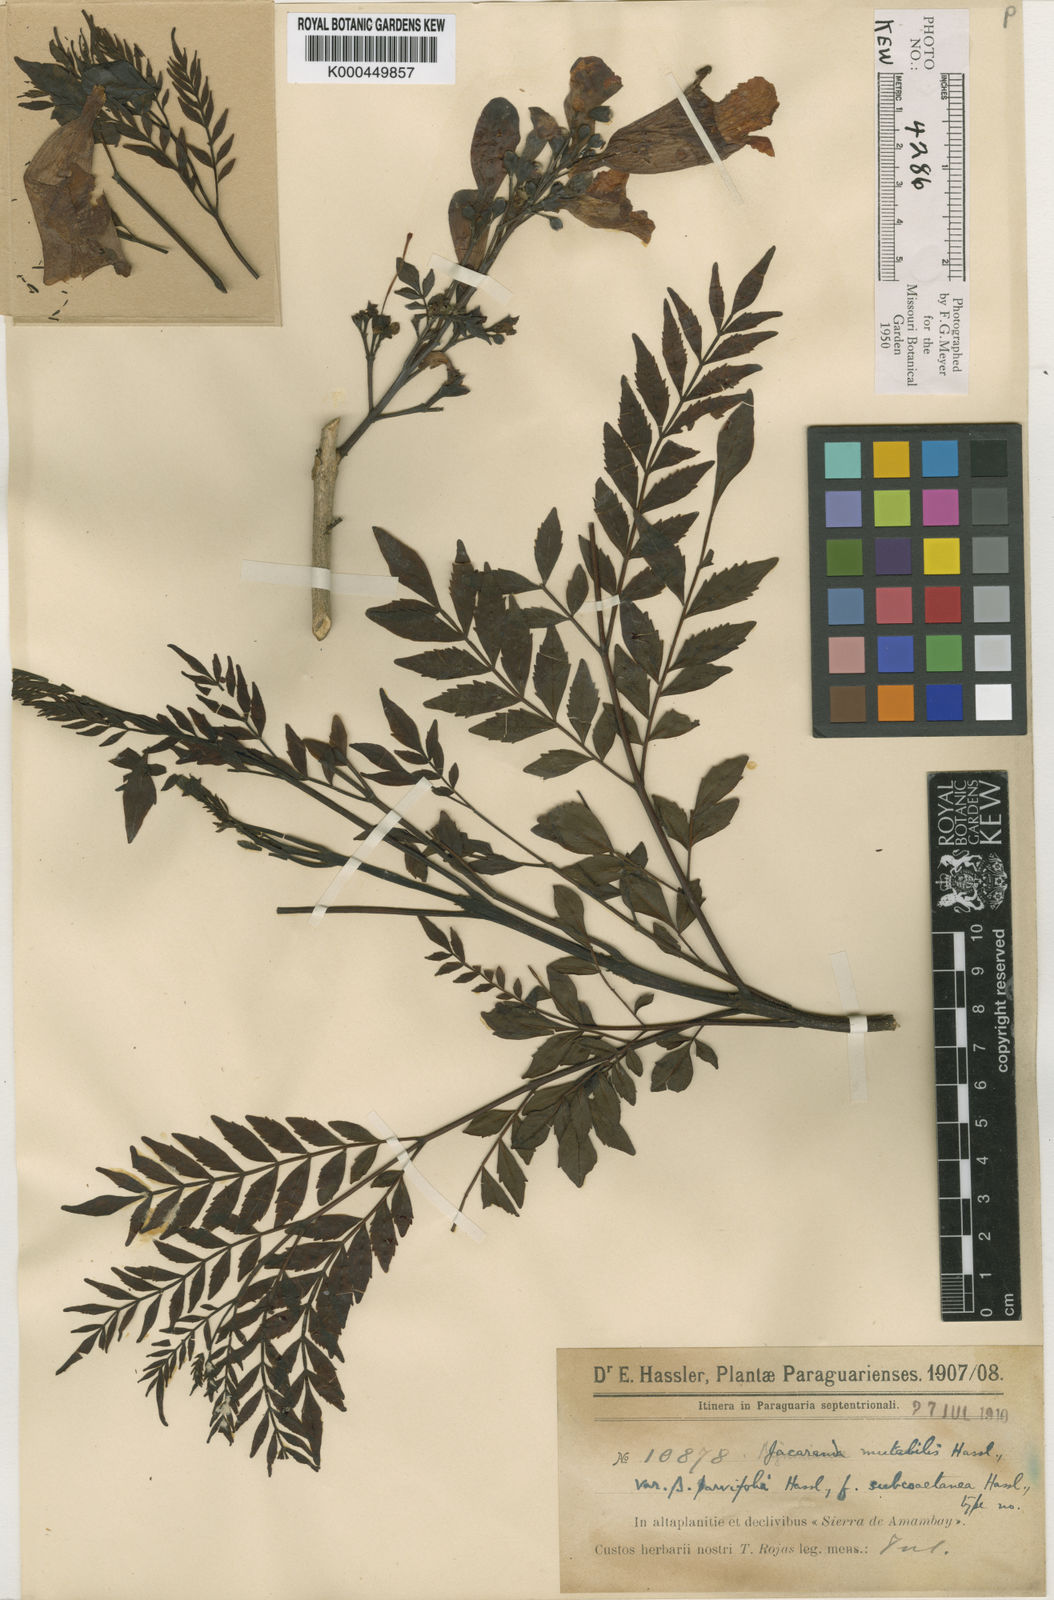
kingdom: Plantae
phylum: Tracheophyta
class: Magnoliopsida
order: Lamiales
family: Bignoniaceae
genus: Jacaranda
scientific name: Jacaranda mutabilis
